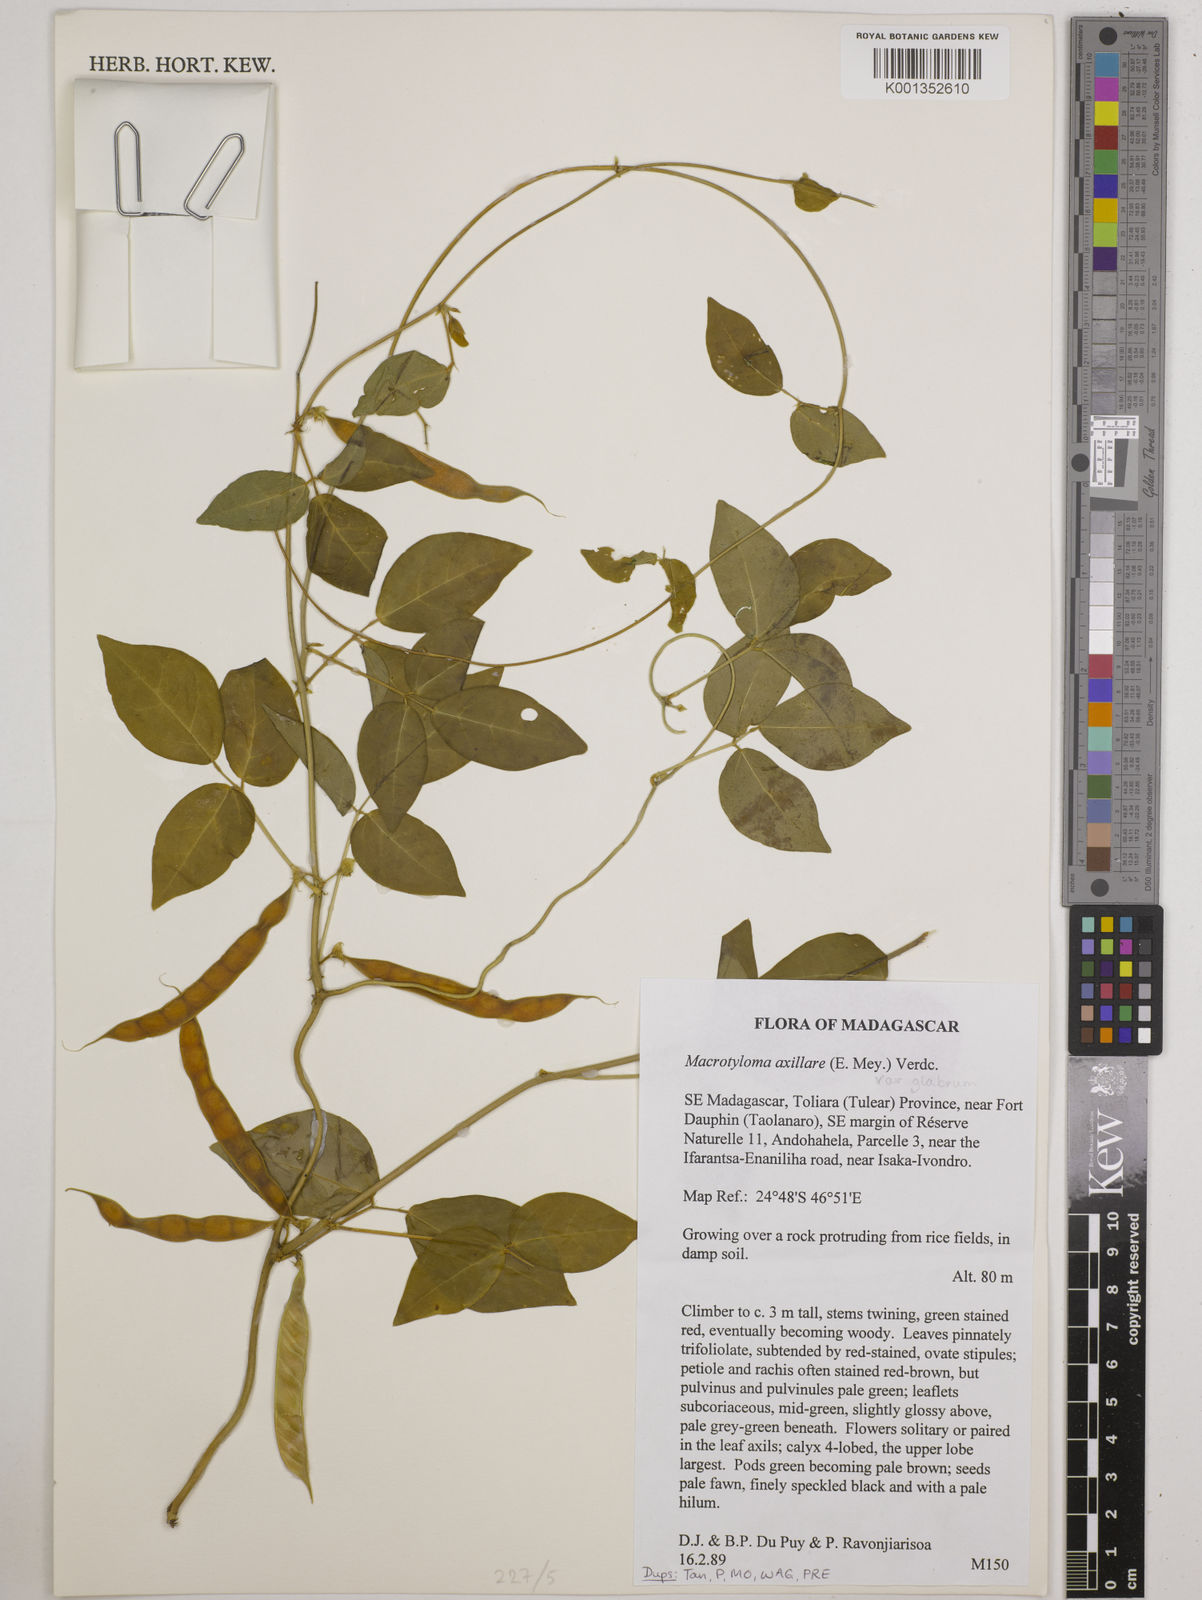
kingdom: Plantae
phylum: Tracheophyta
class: Magnoliopsida
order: Fabales
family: Fabaceae
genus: Macrotyloma
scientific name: Macrotyloma
